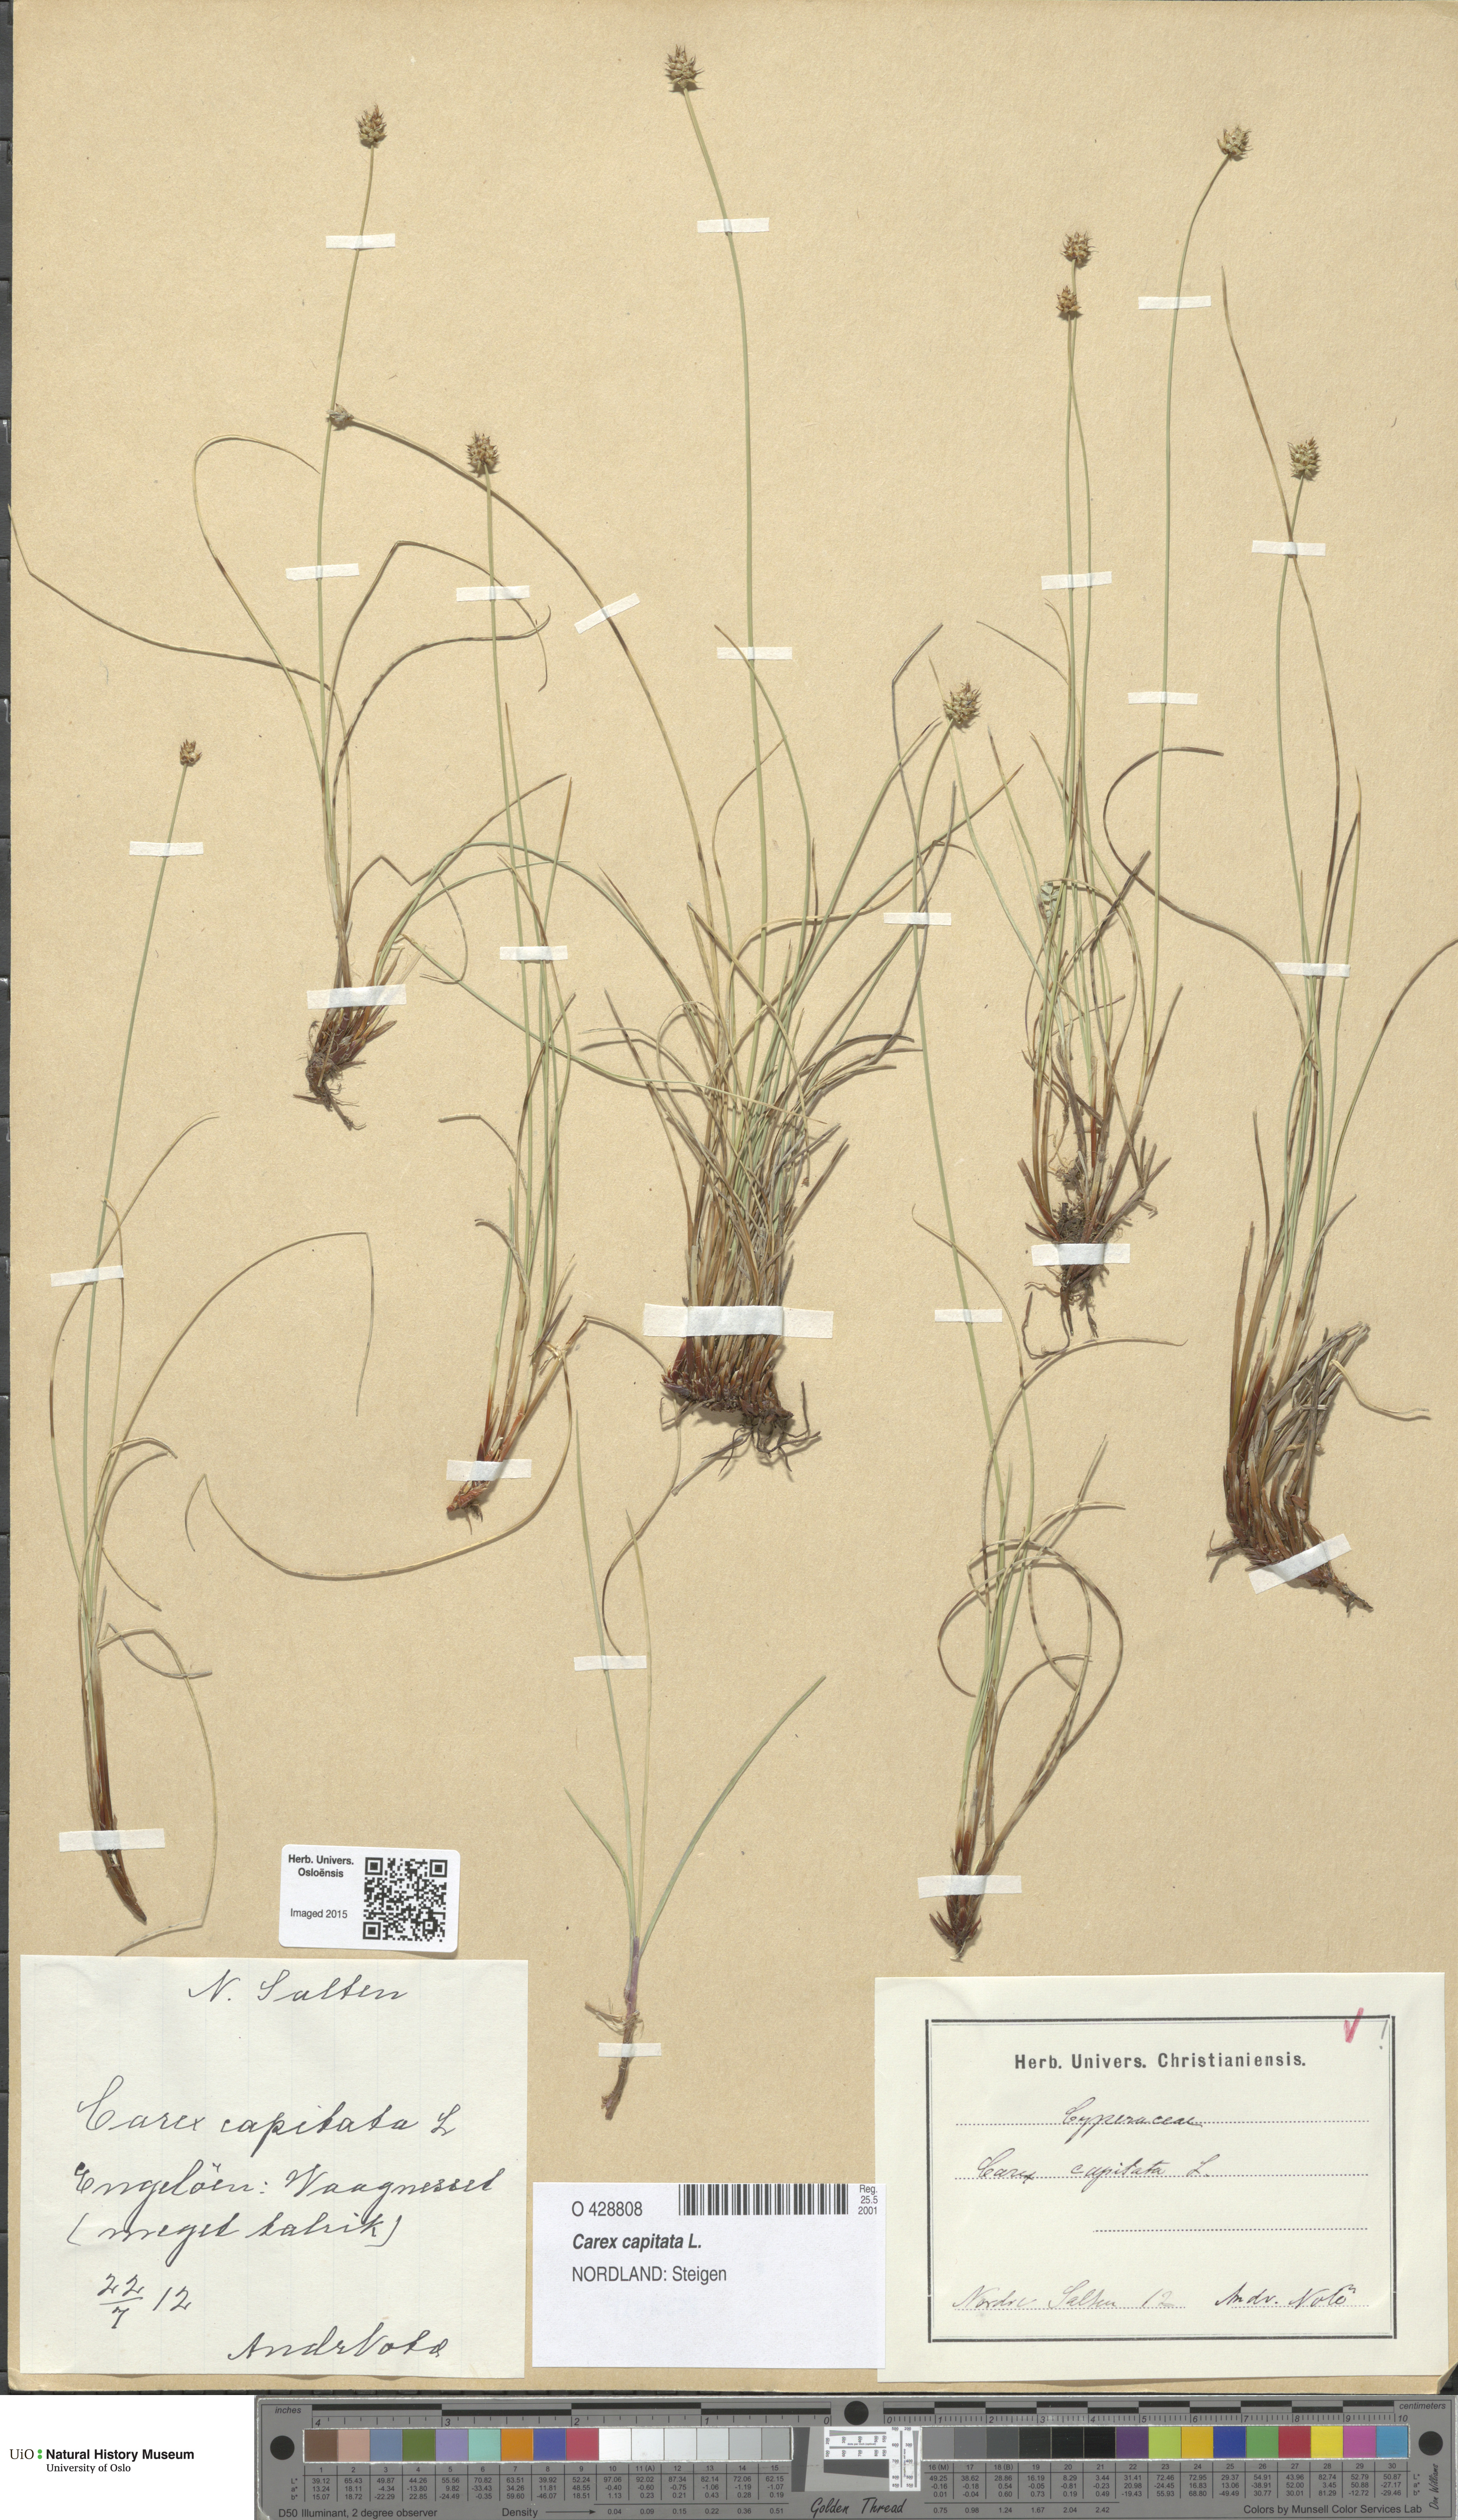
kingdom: Plantae
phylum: Tracheophyta
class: Liliopsida
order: Poales
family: Cyperaceae
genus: Carex
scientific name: Carex capitata
